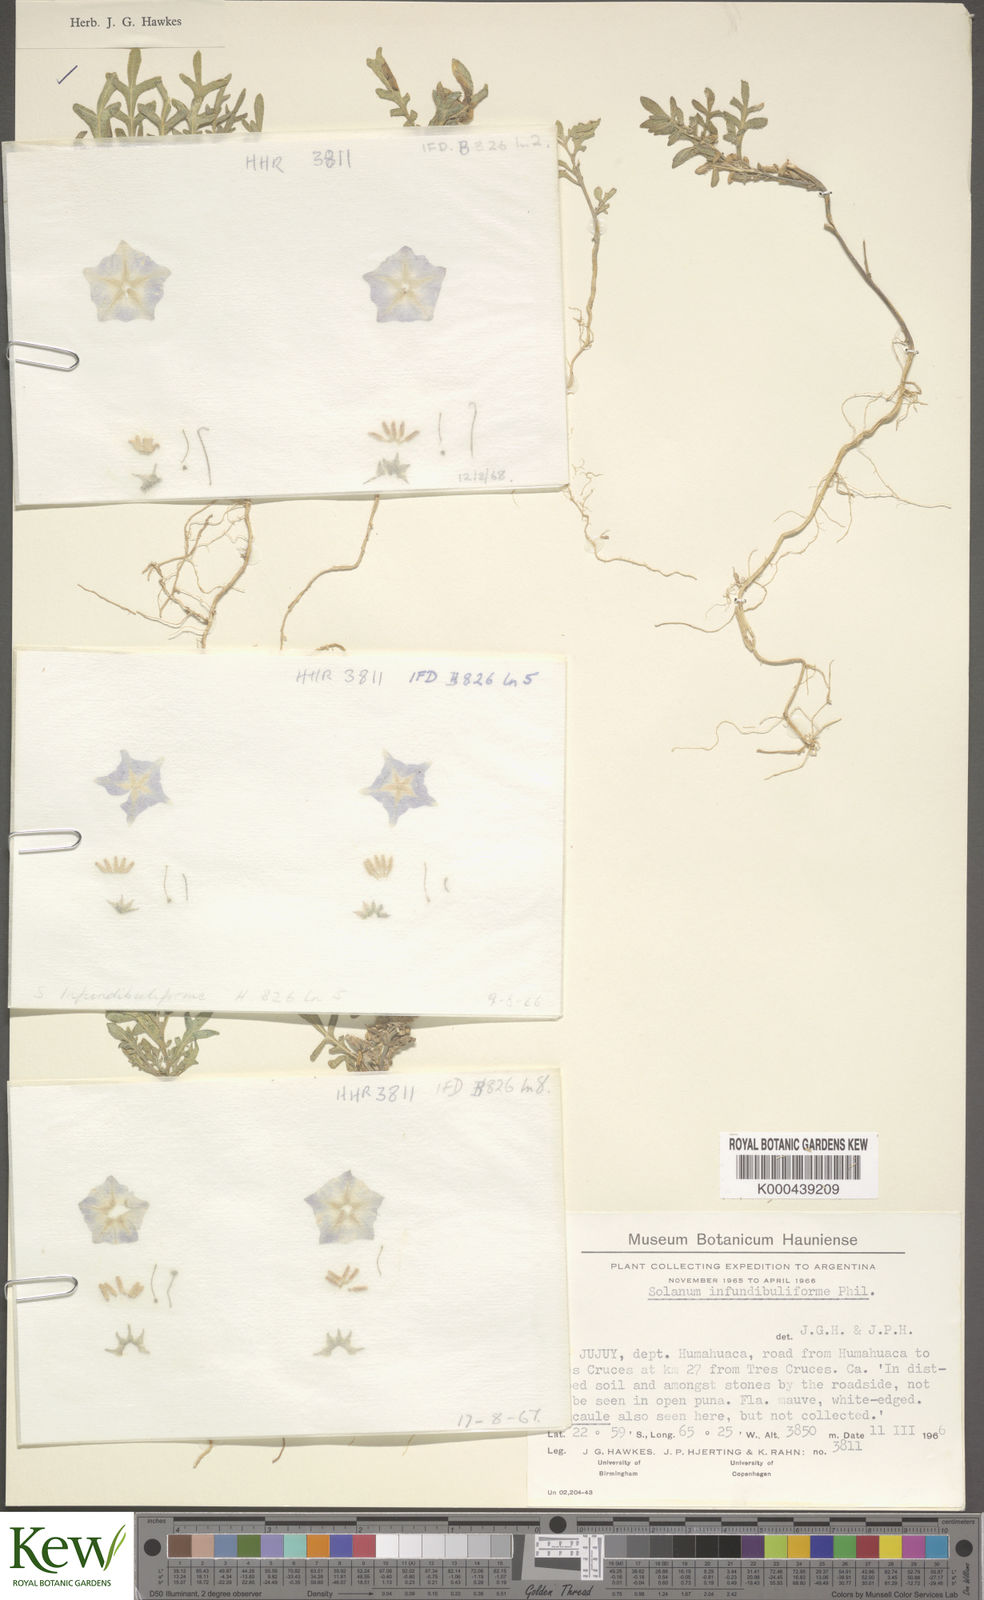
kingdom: Plantae
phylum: Tracheophyta
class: Magnoliopsida
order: Solanales
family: Solanaceae
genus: Solanum
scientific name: Solanum infundibuliforme
